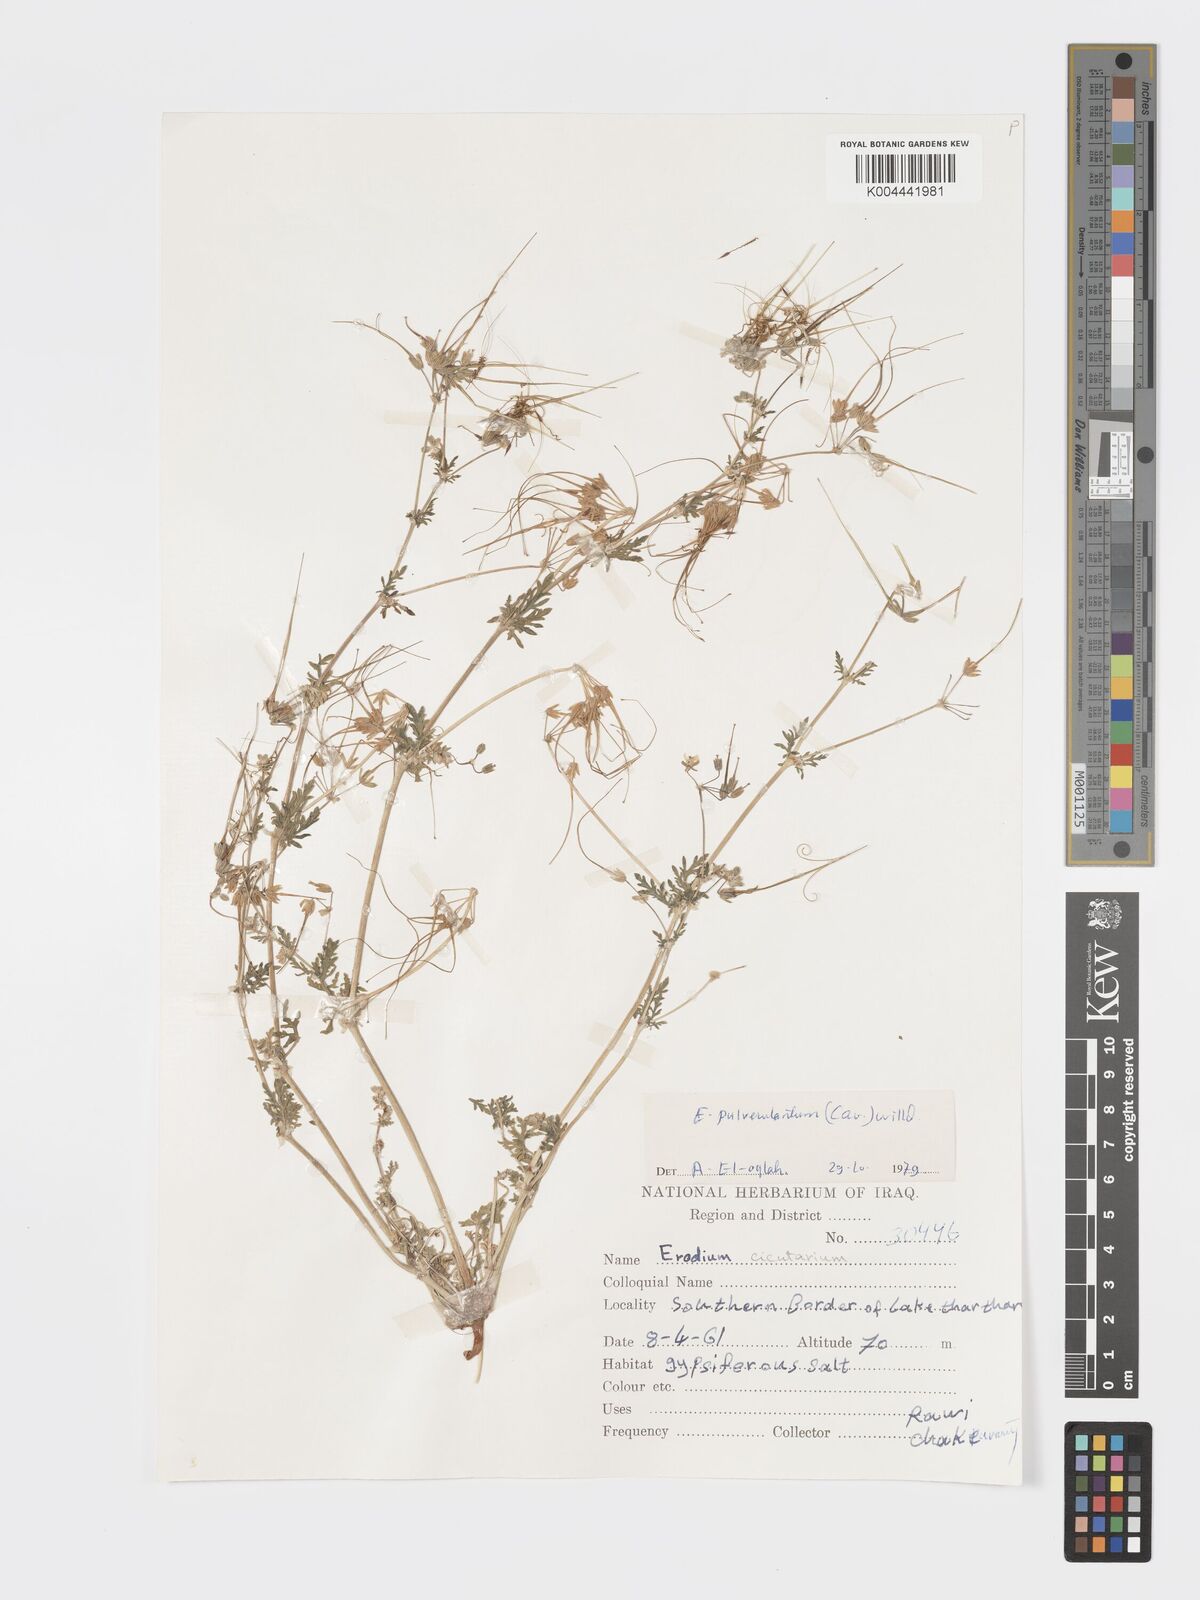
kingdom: Plantae
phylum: Tracheophyta
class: Magnoliopsida
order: Geraniales
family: Geraniaceae
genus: Erodium
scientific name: Erodium laciniatum
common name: Cutleaf stork's bill
